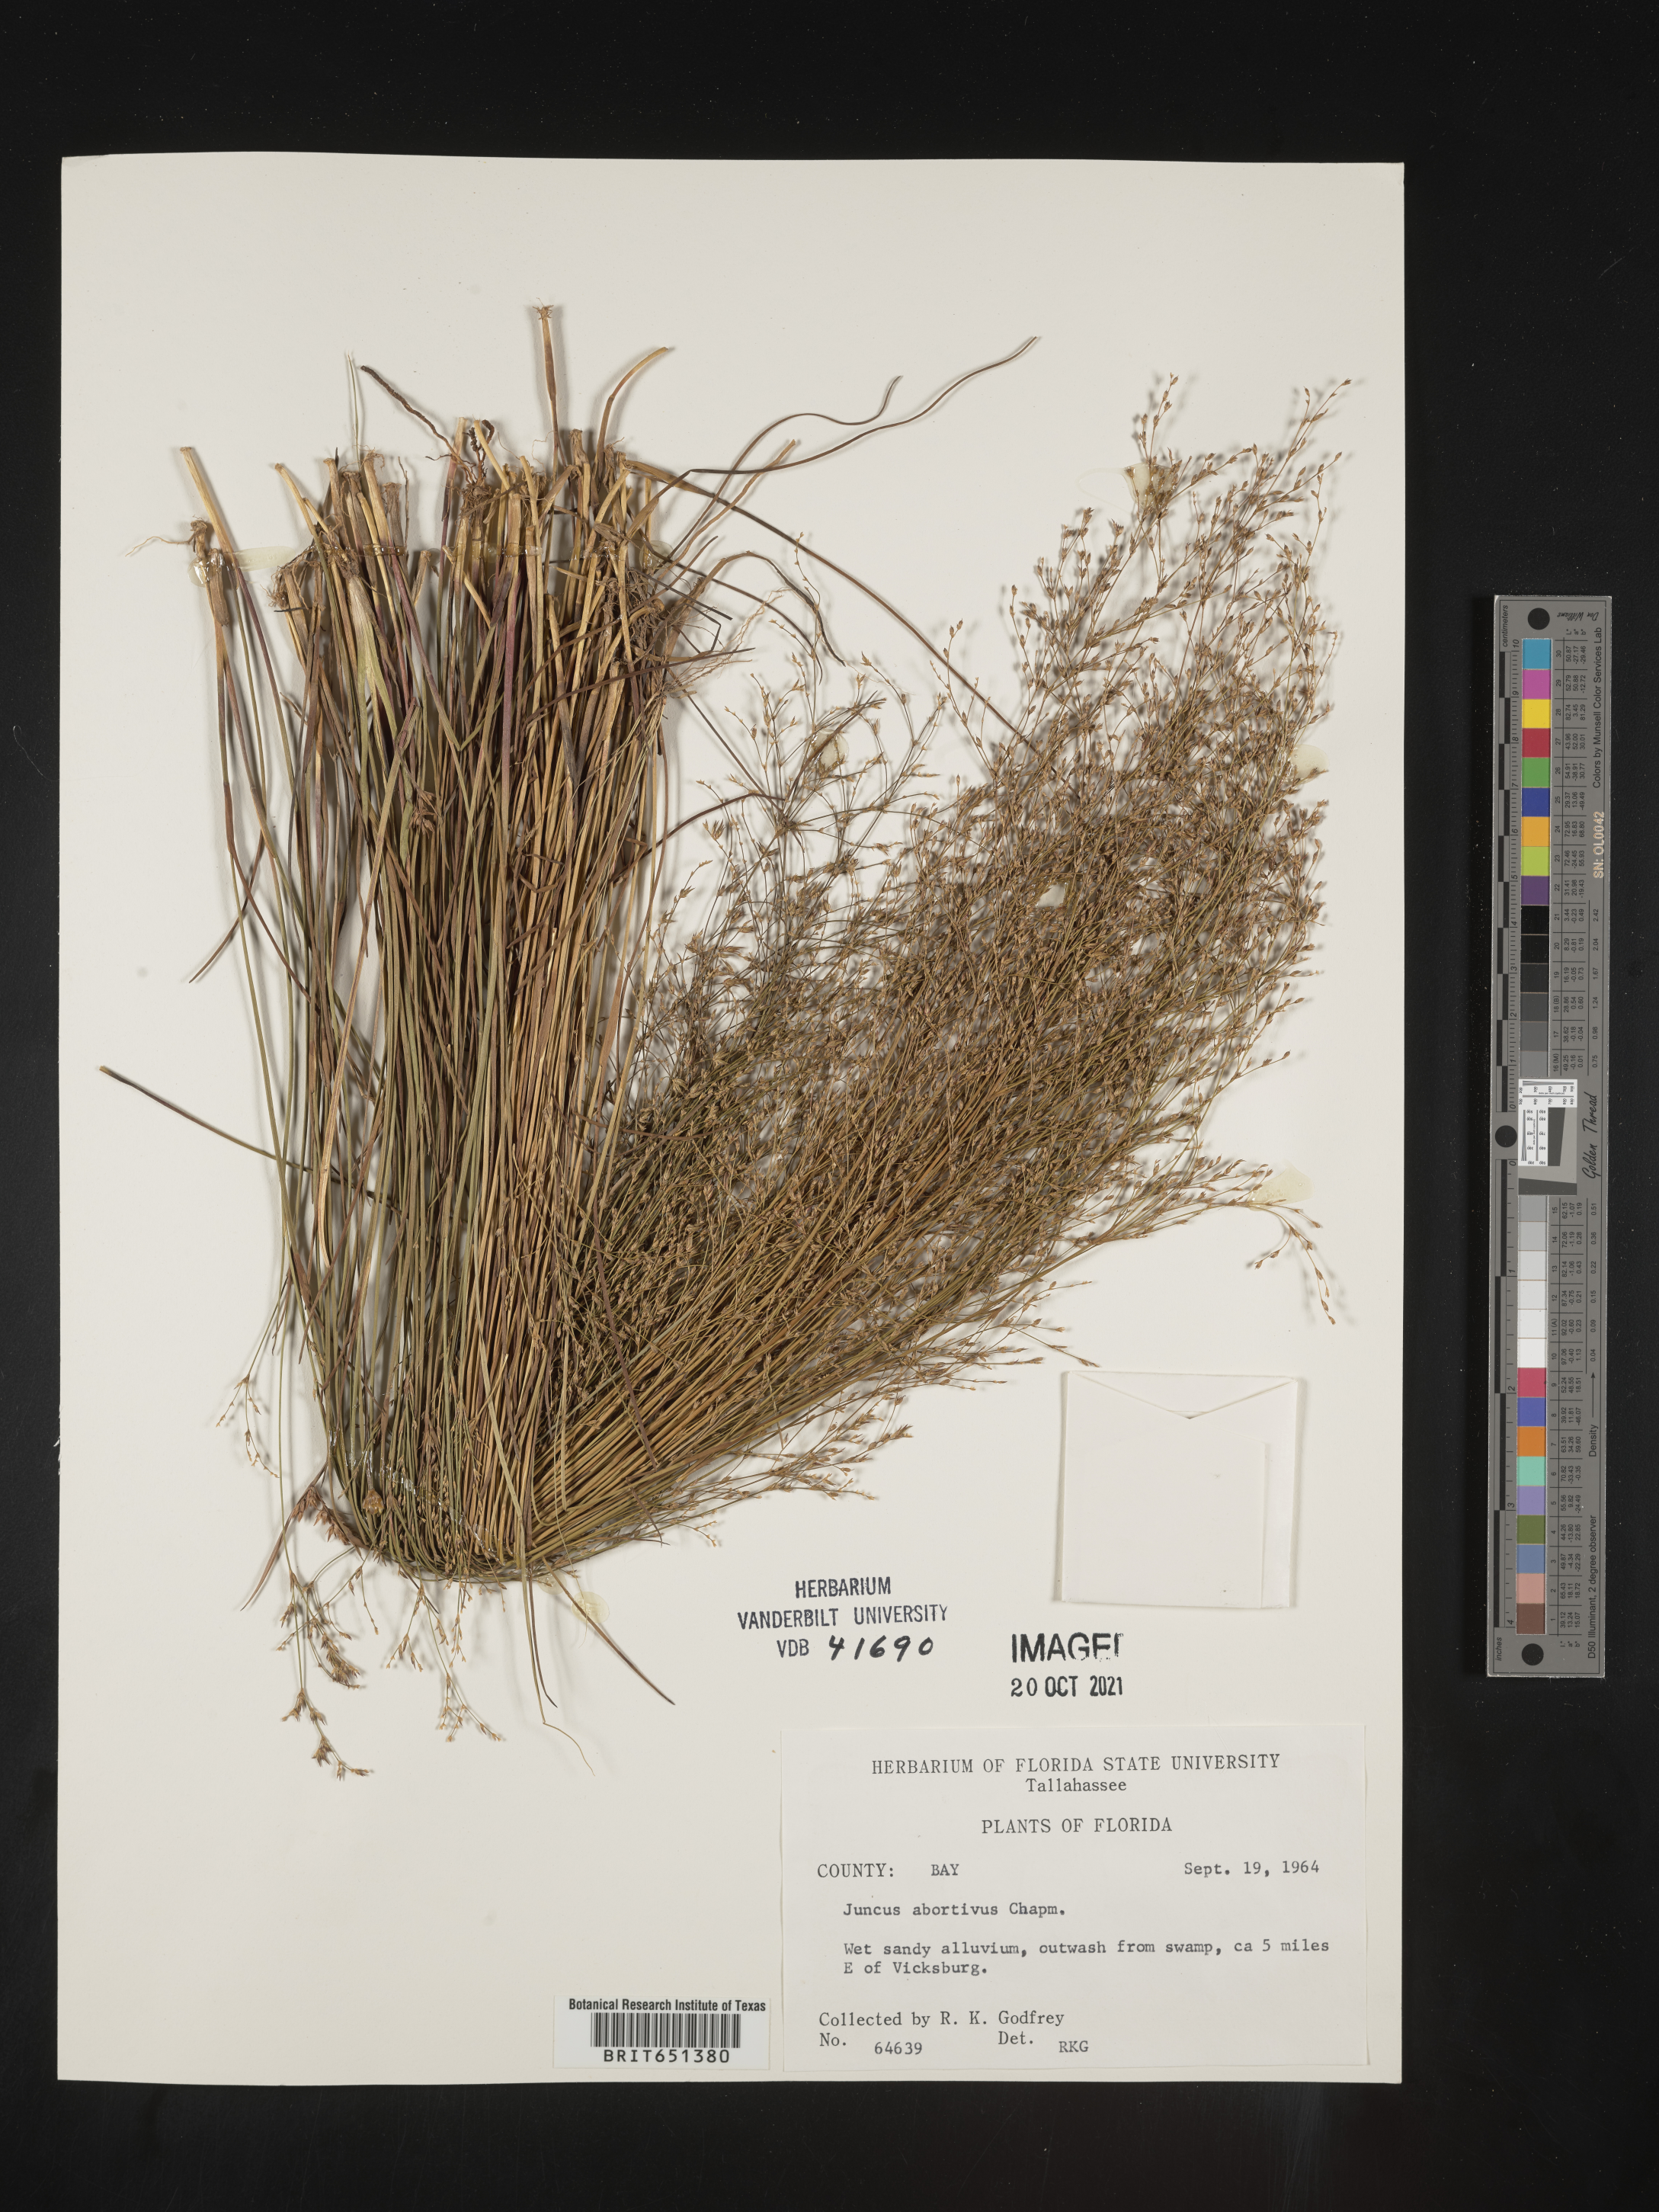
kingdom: Plantae
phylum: Tracheophyta
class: Liliopsida
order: Poales
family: Juncaceae
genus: Juncus
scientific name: Juncus abortivus
